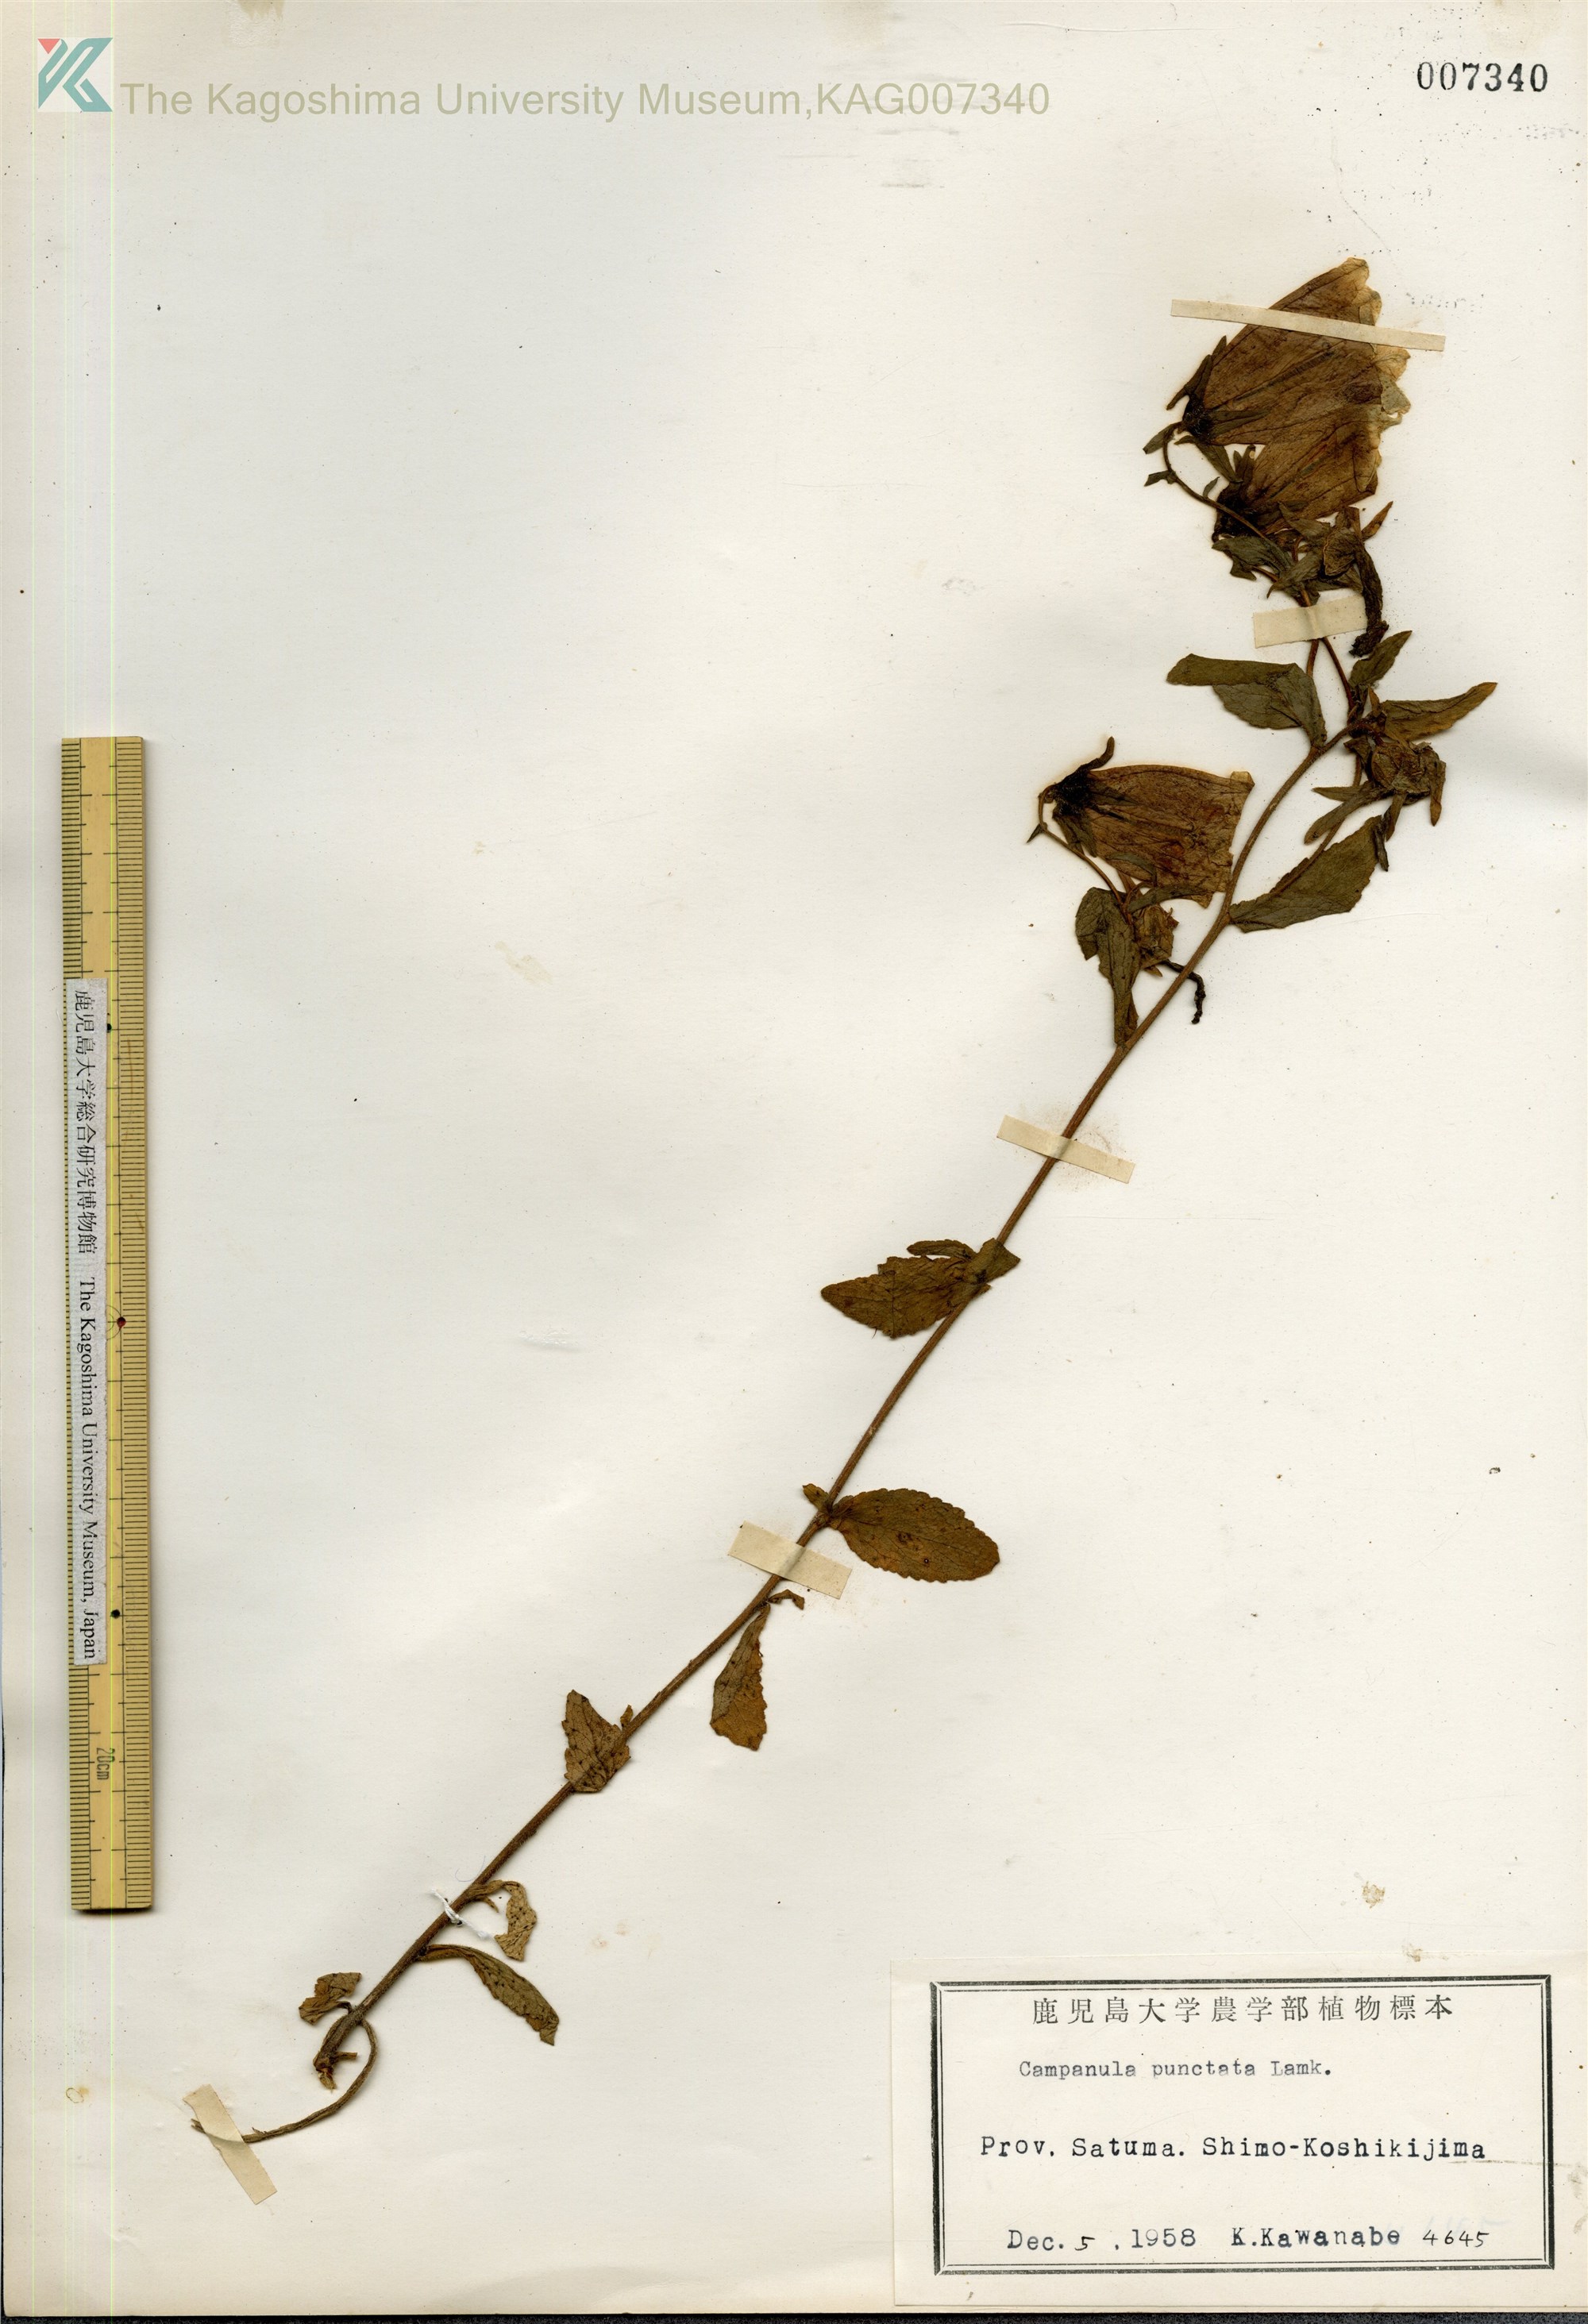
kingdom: Plantae
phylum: Tracheophyta
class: Magnoliopsida
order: Asterales
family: Campanulaceae
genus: Campanula
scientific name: Campanula punctata
